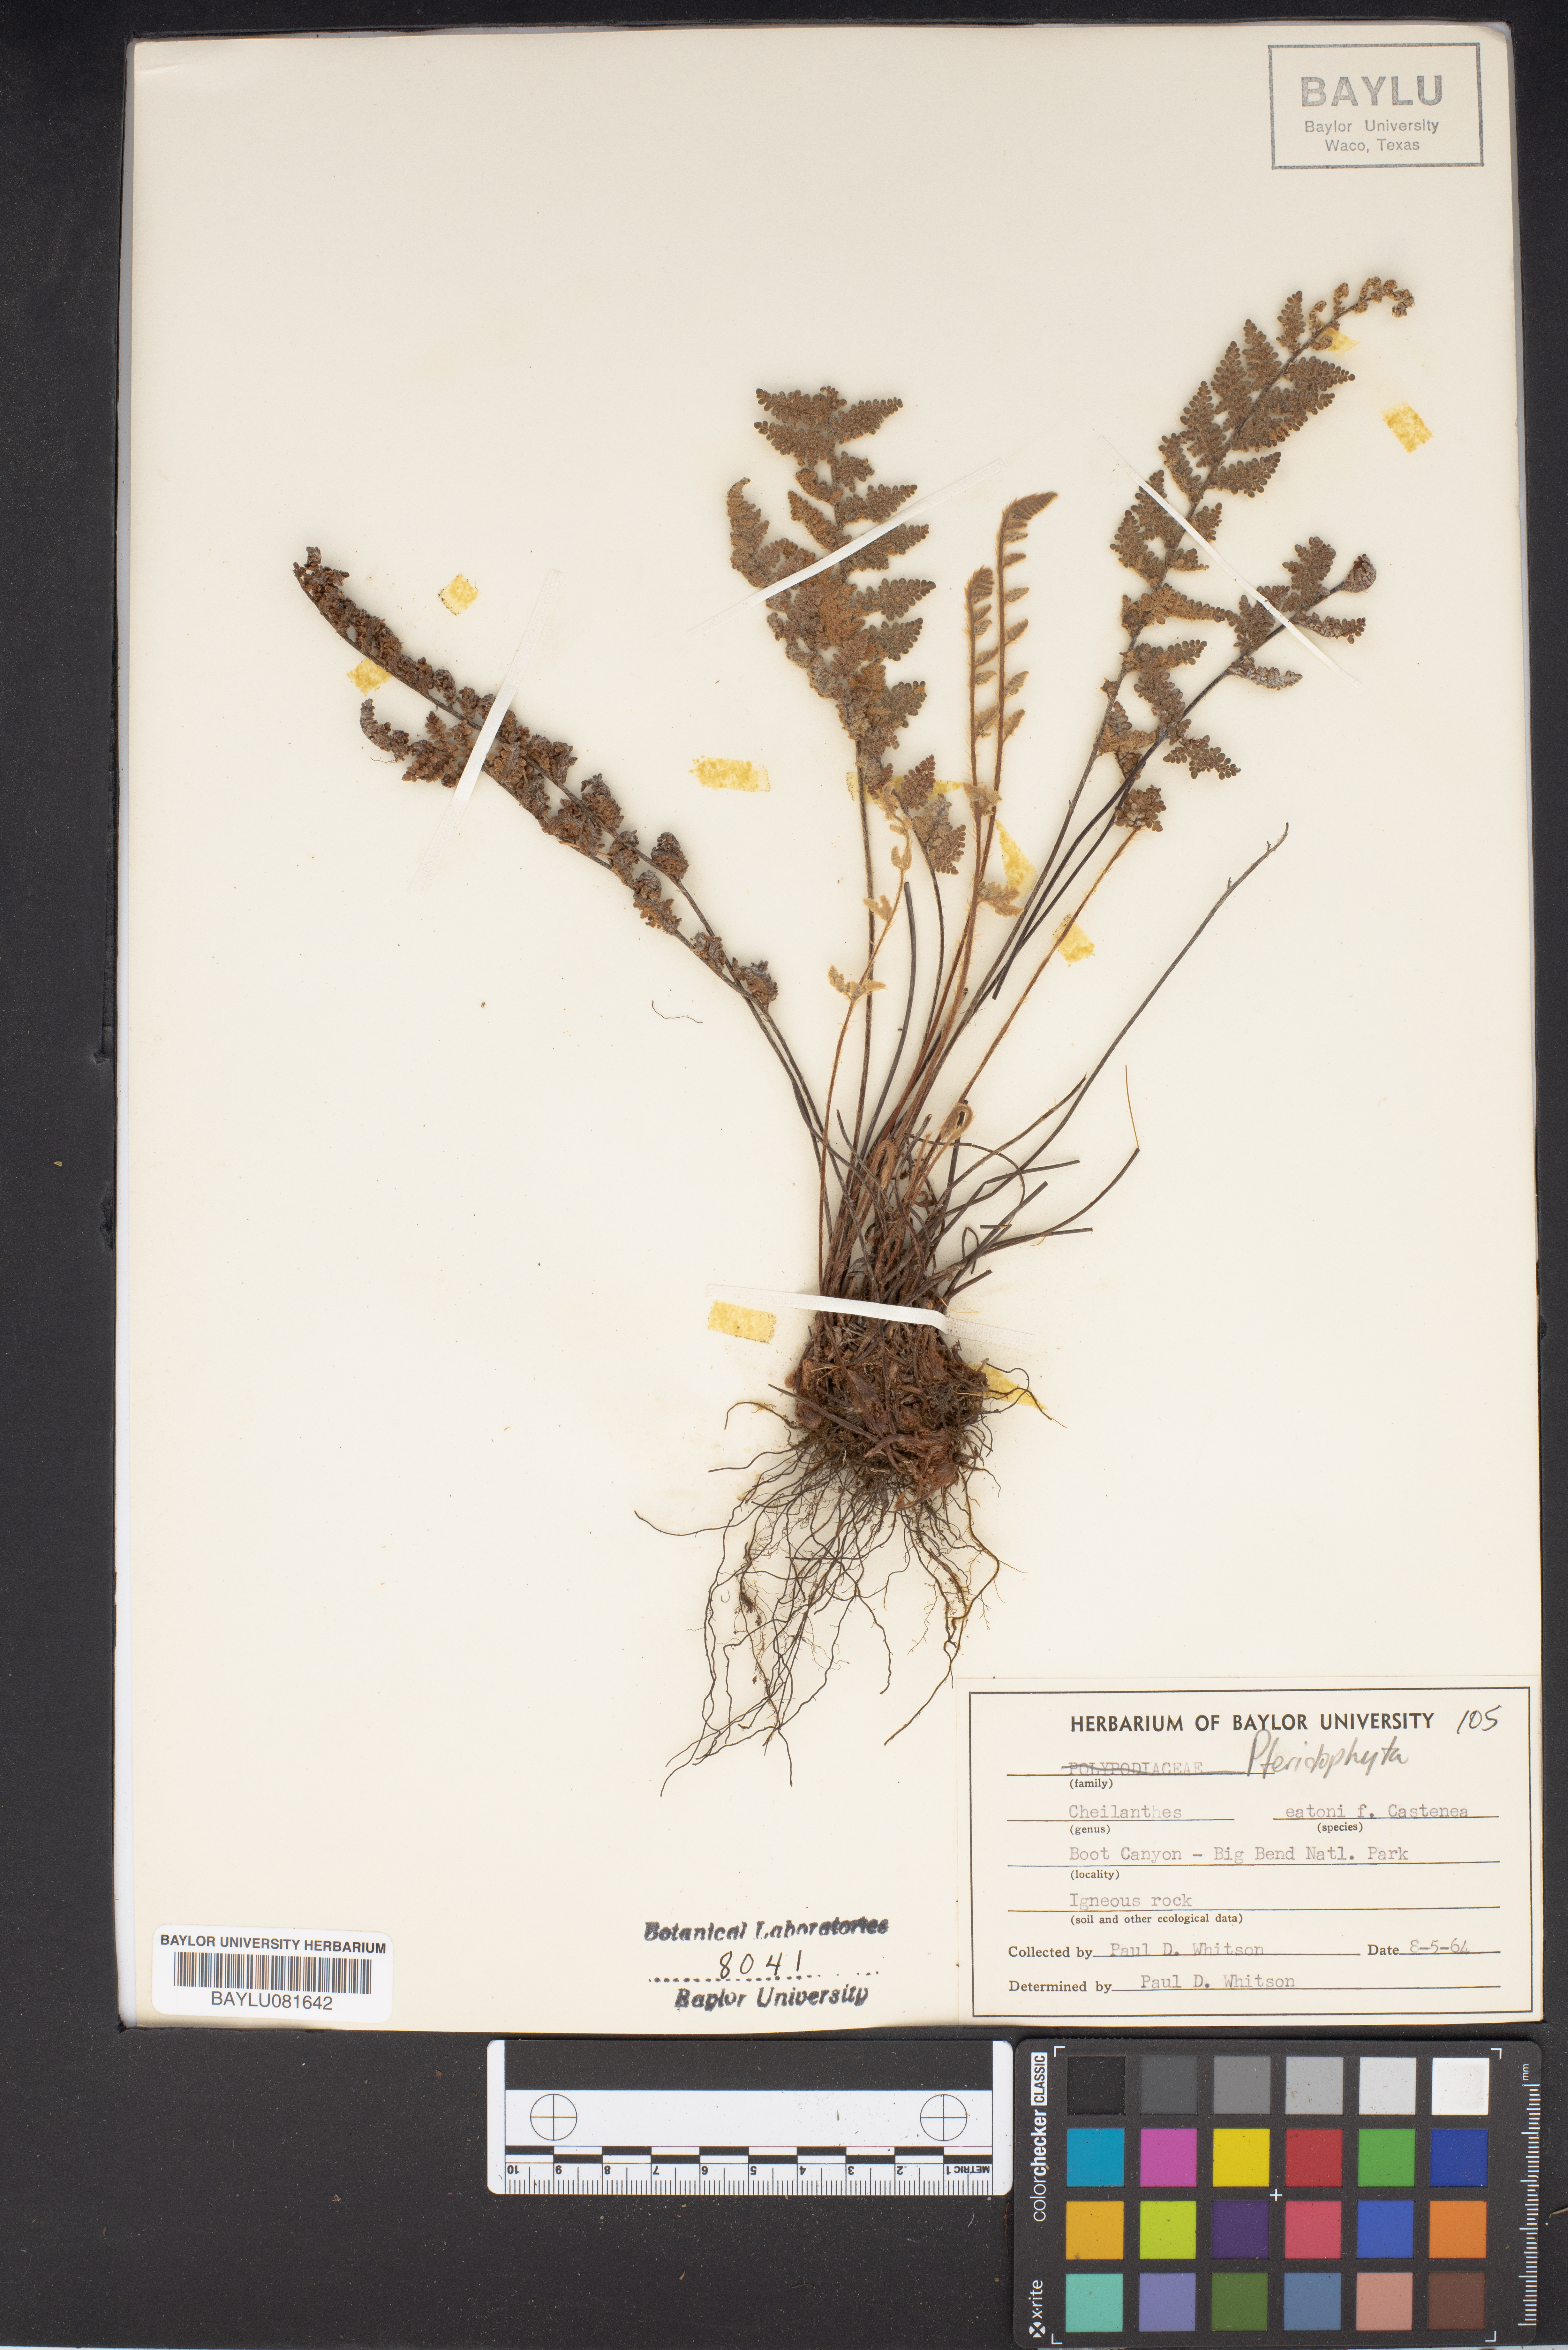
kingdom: Plantae
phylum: Tracheophyta
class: Polypodiopsida
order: Polypodiales
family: Pteridaceae
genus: Myriopteris
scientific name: Myriopteris rufa
